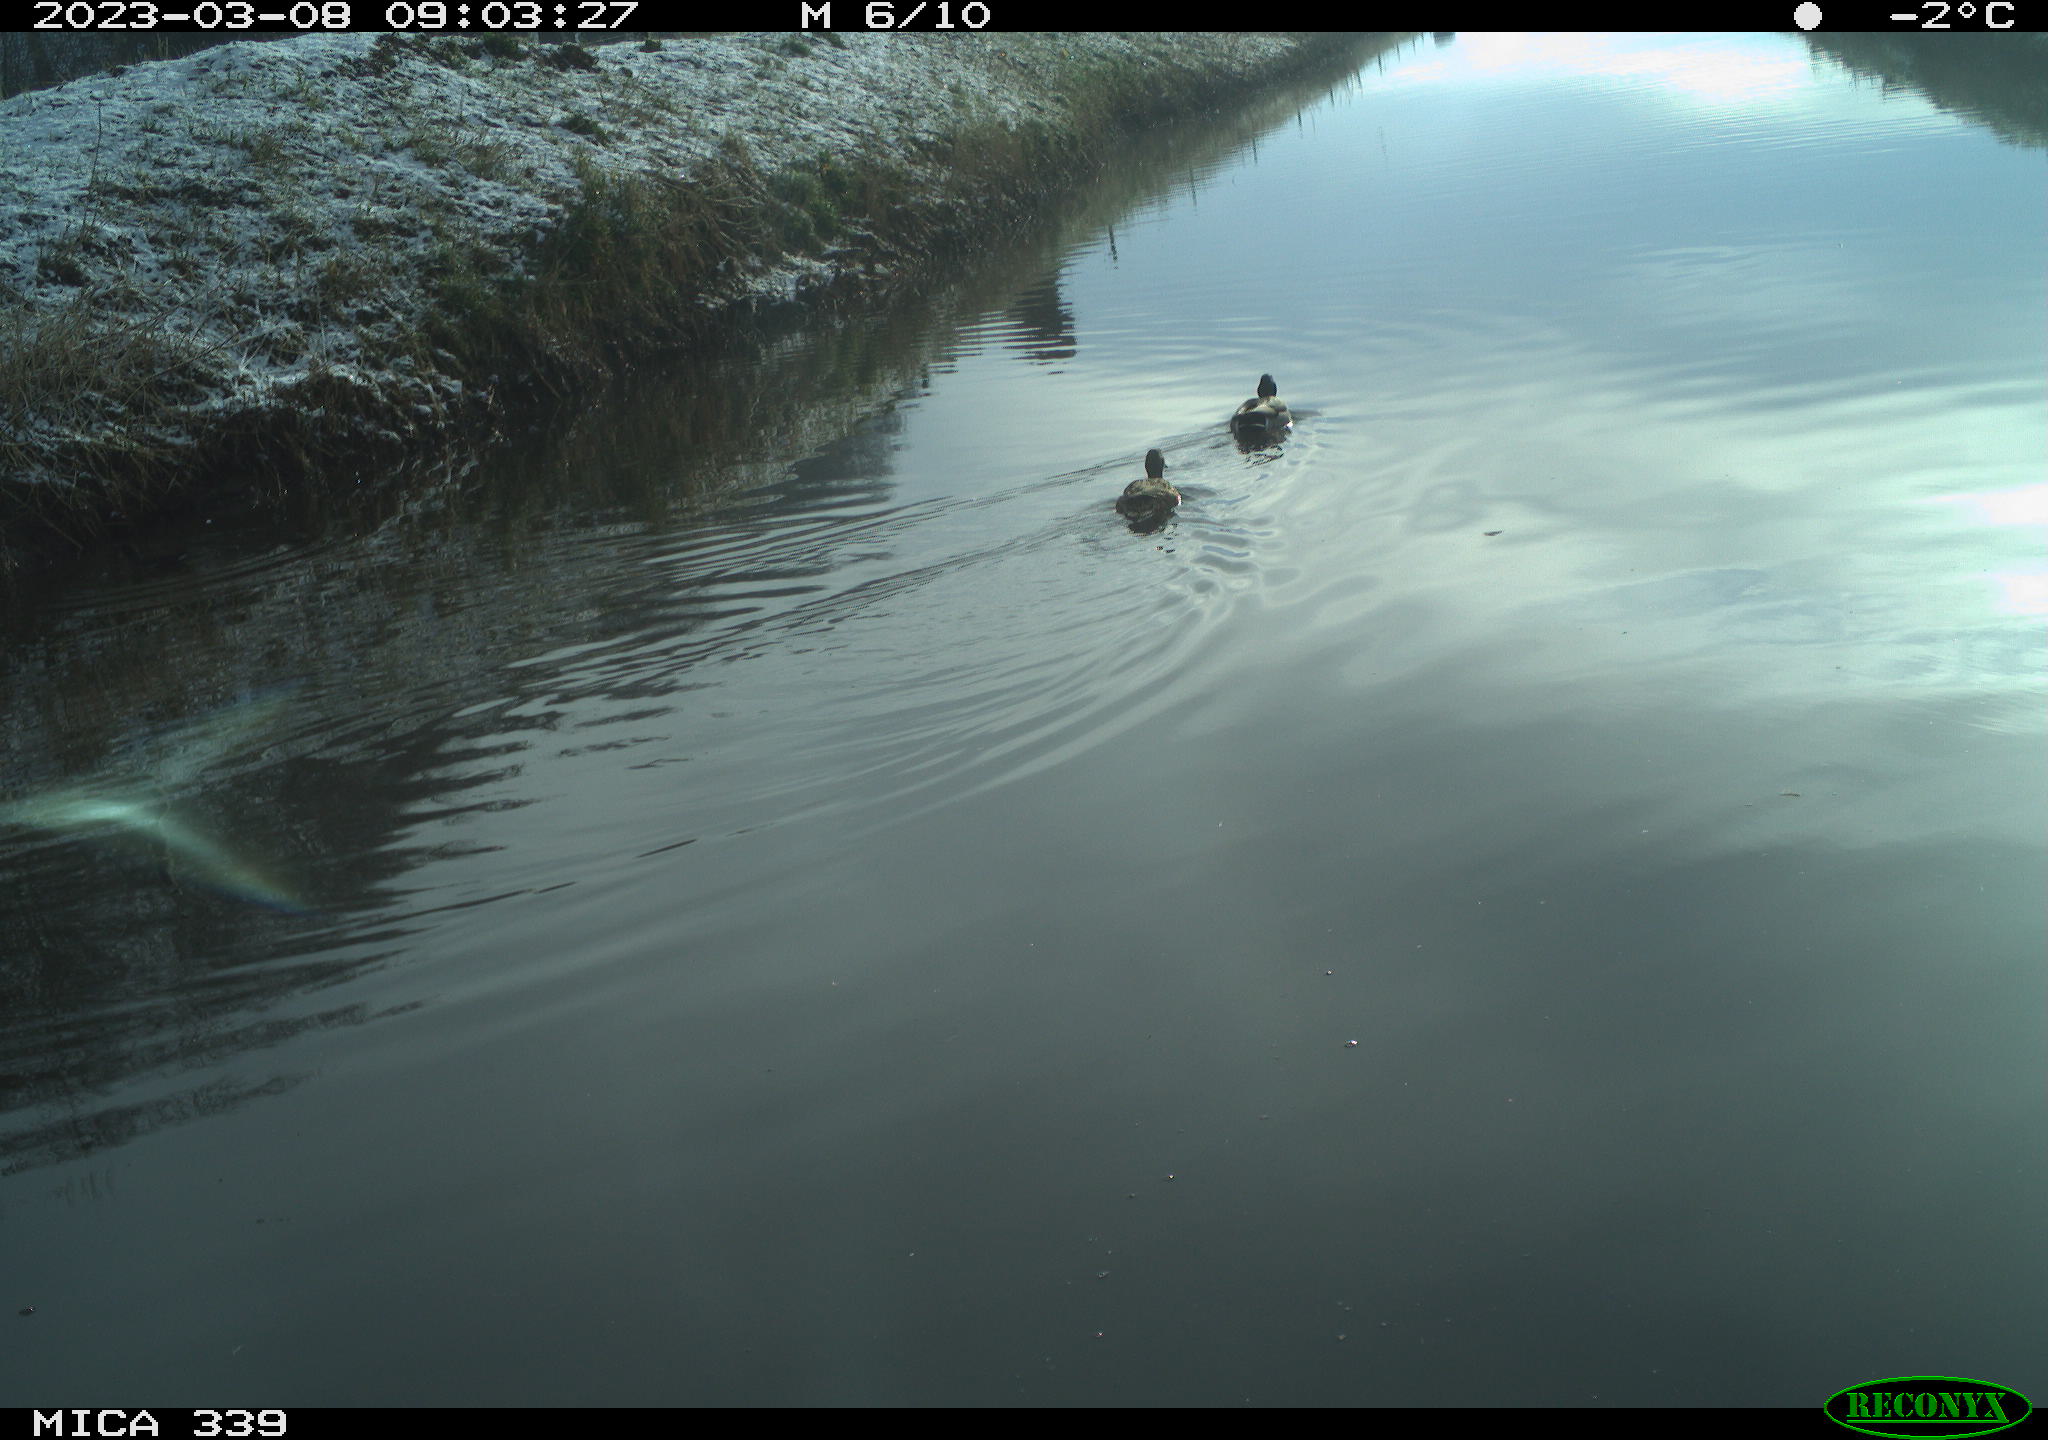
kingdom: Animalia
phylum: Chordata
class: Aves
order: Anseriformes
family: Anatidae
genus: Anas
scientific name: Anas
